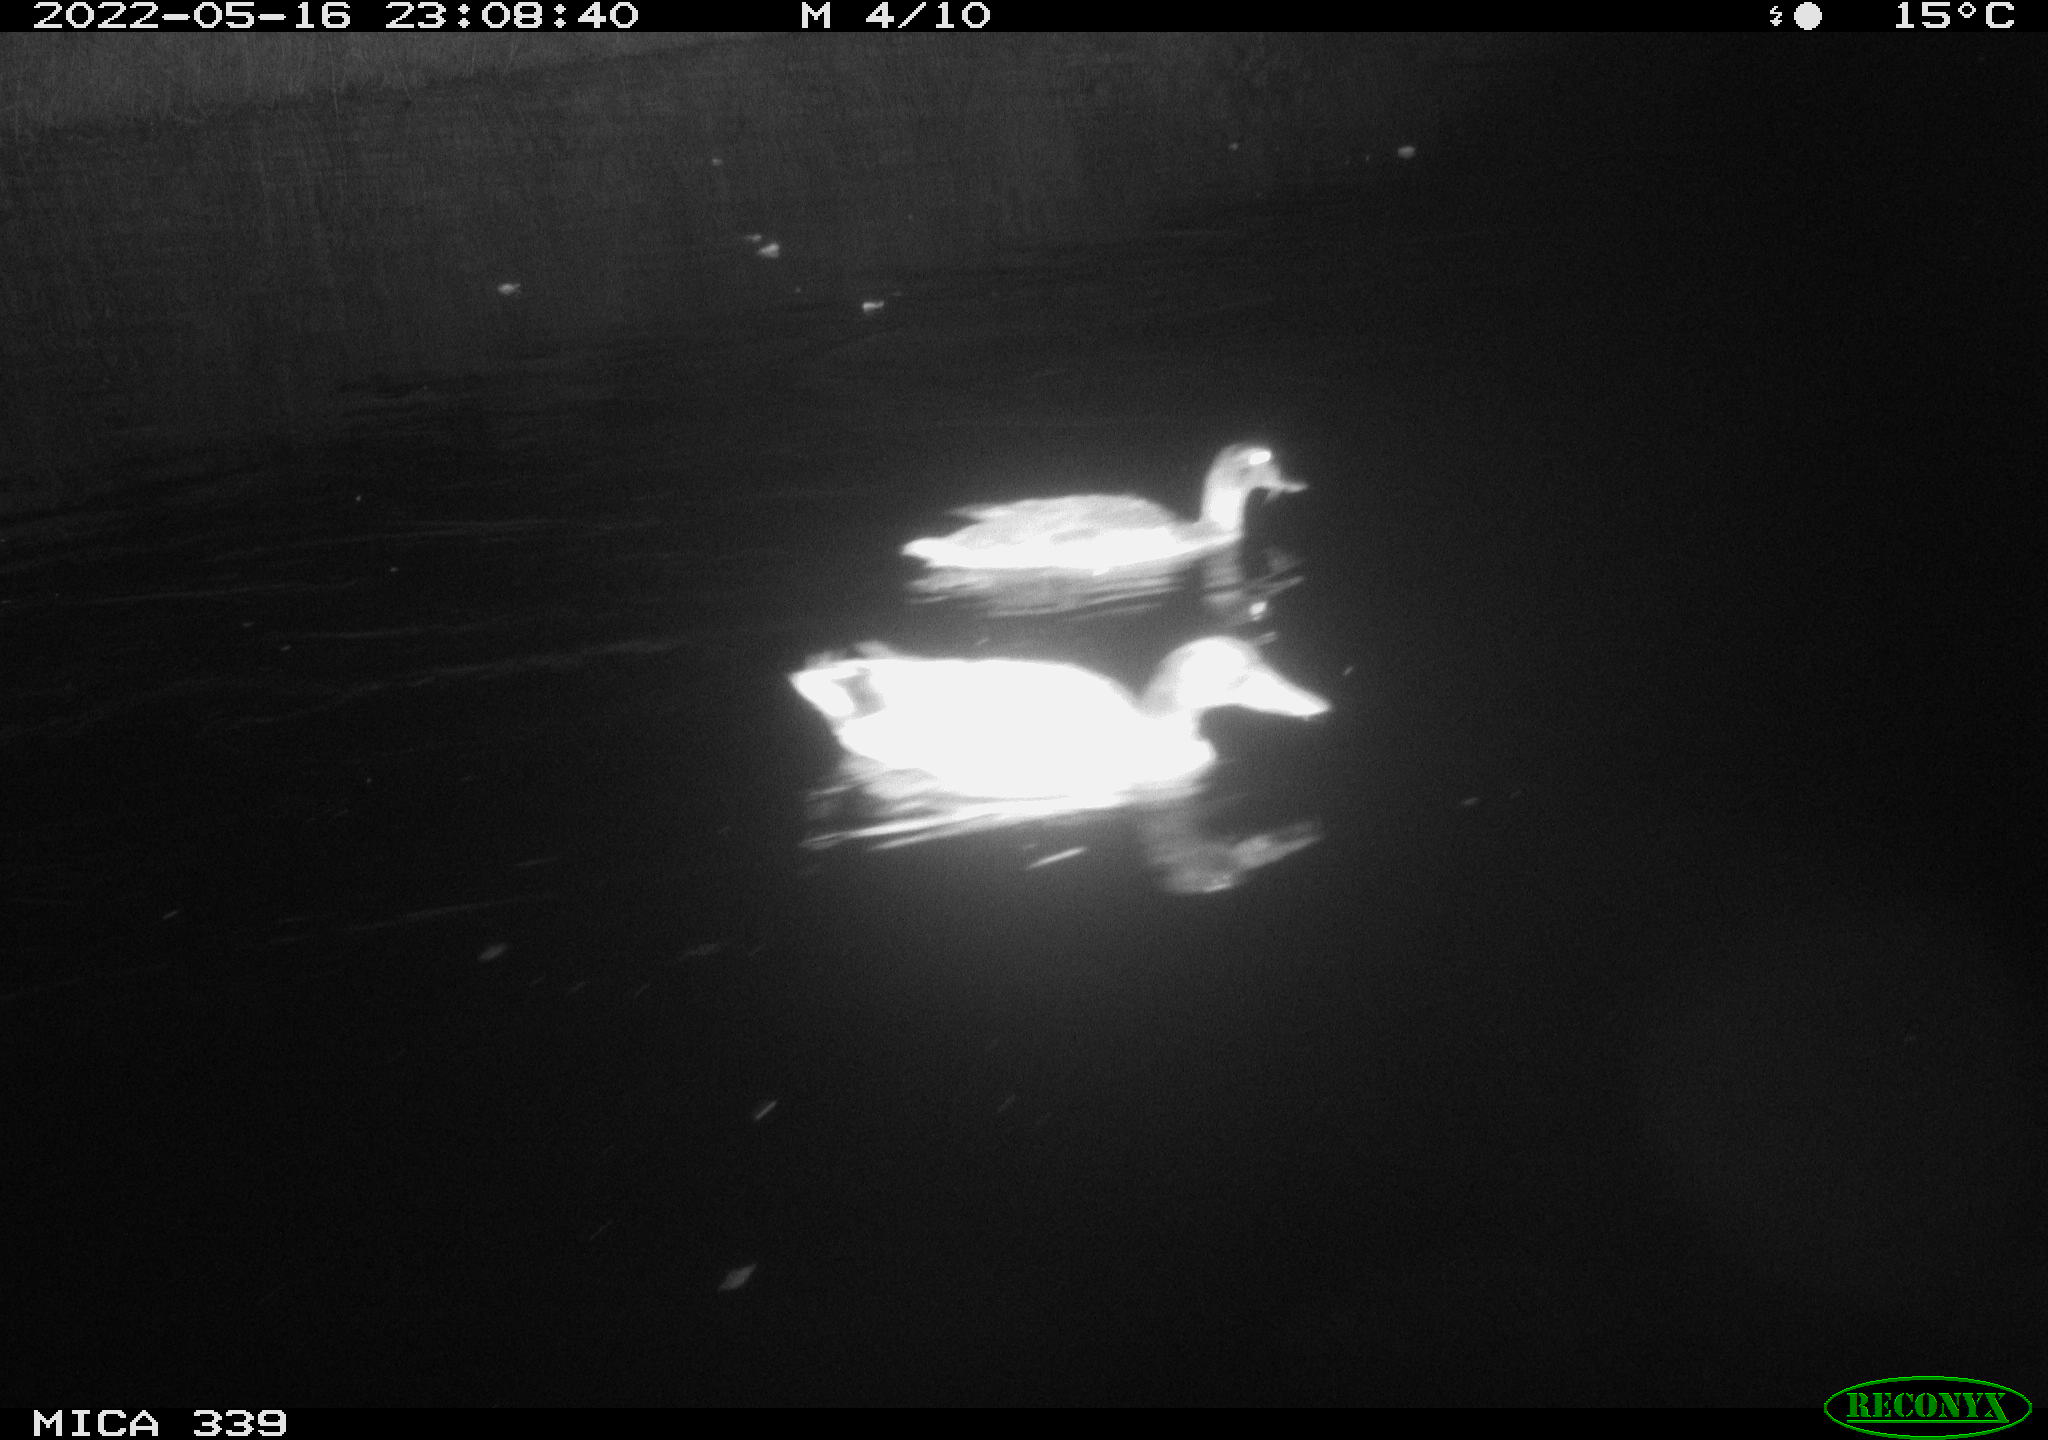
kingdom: Animalia
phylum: Chordata
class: Aves
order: Anseriformes
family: Anatidae
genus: Anas
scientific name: Anas platyrhynchos
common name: Mallard
